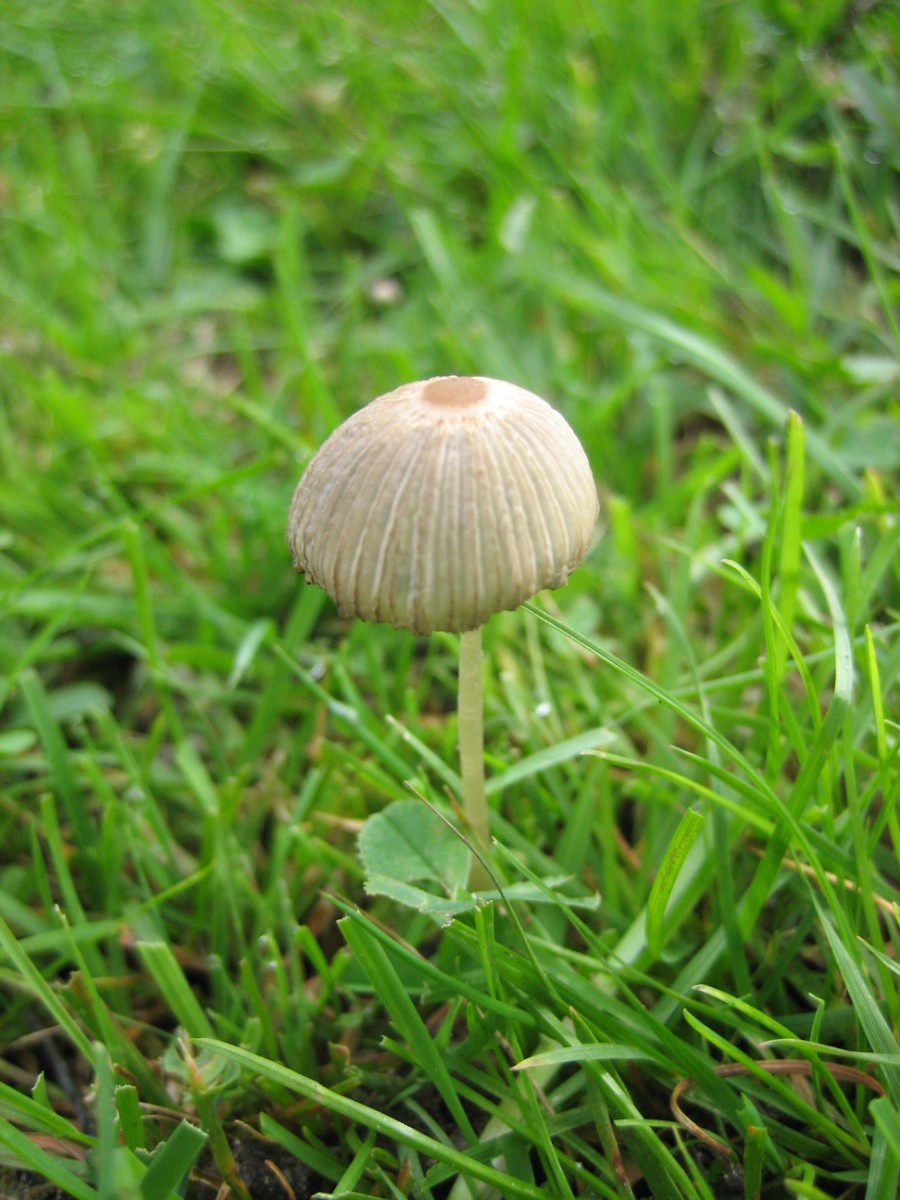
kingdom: Fungi
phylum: Basidiomycota
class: Agaricomycetes
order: Agaricales
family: Psathyrellaceae
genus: Parasola
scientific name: Parasola
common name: hjulhat
